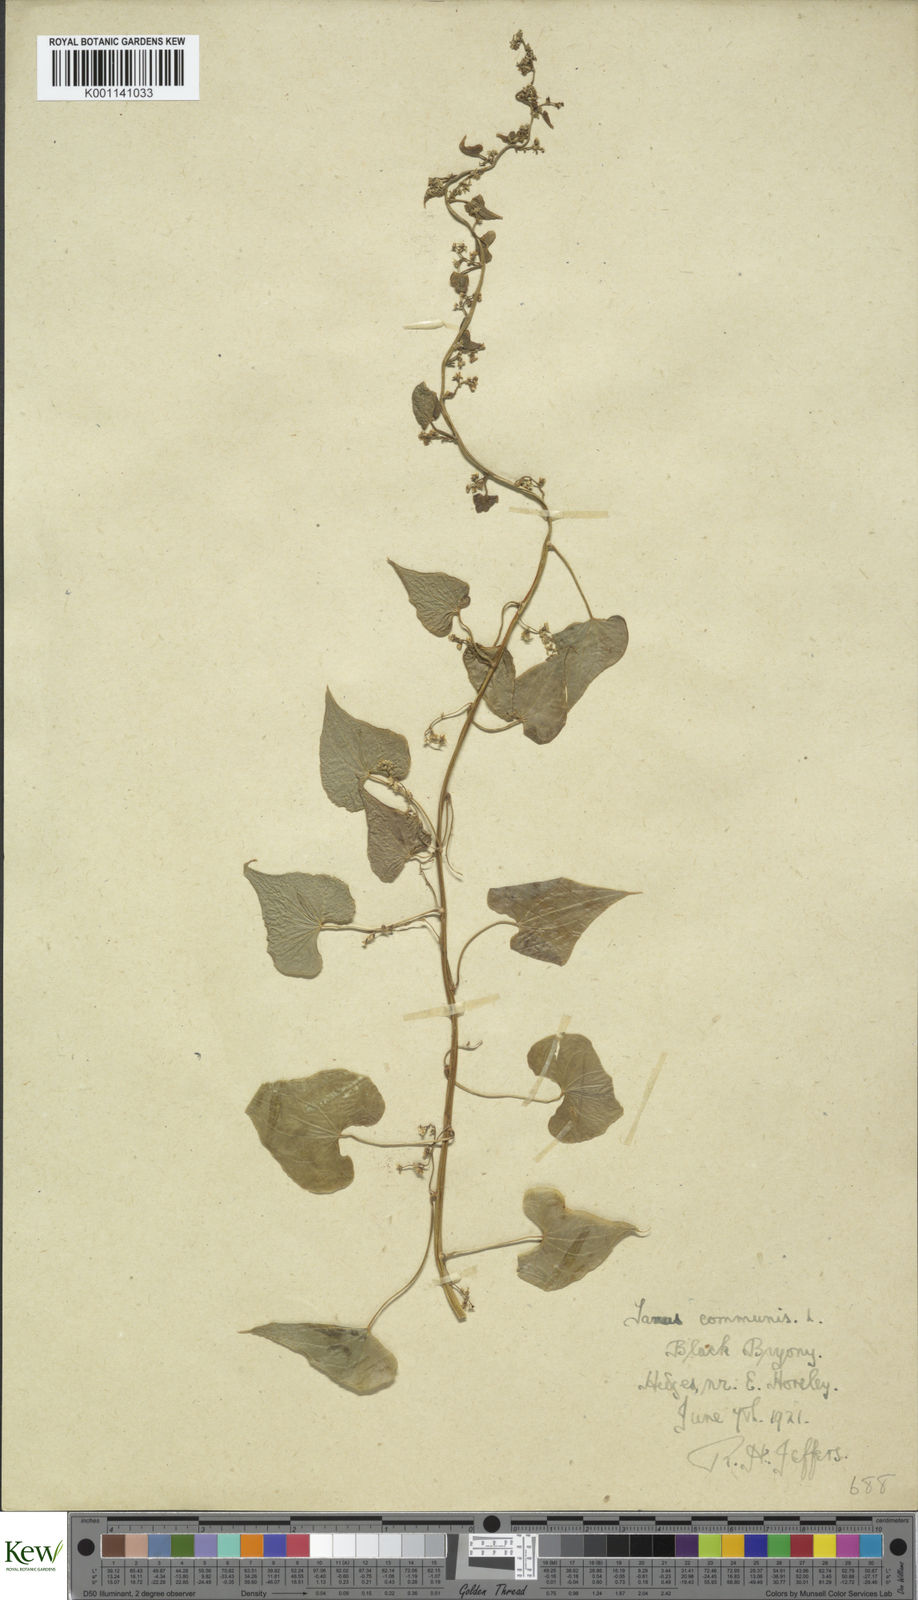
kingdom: Plantae
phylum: Tracheophyta
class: Liliopsida
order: Dioscoreales
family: Dioscoreaceae
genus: Dioscorea
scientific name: Dioscorea communis
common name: Black-bindweed
